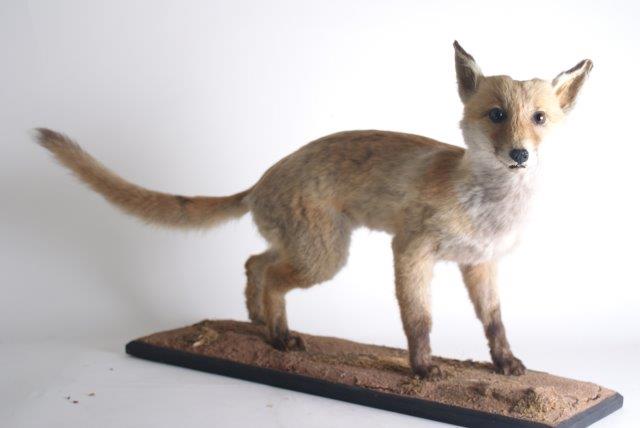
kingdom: Animalia
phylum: Chordata
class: Mammalia
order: Carnivora
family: Canidae
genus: Vulpes
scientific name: Vulpes vulpes
